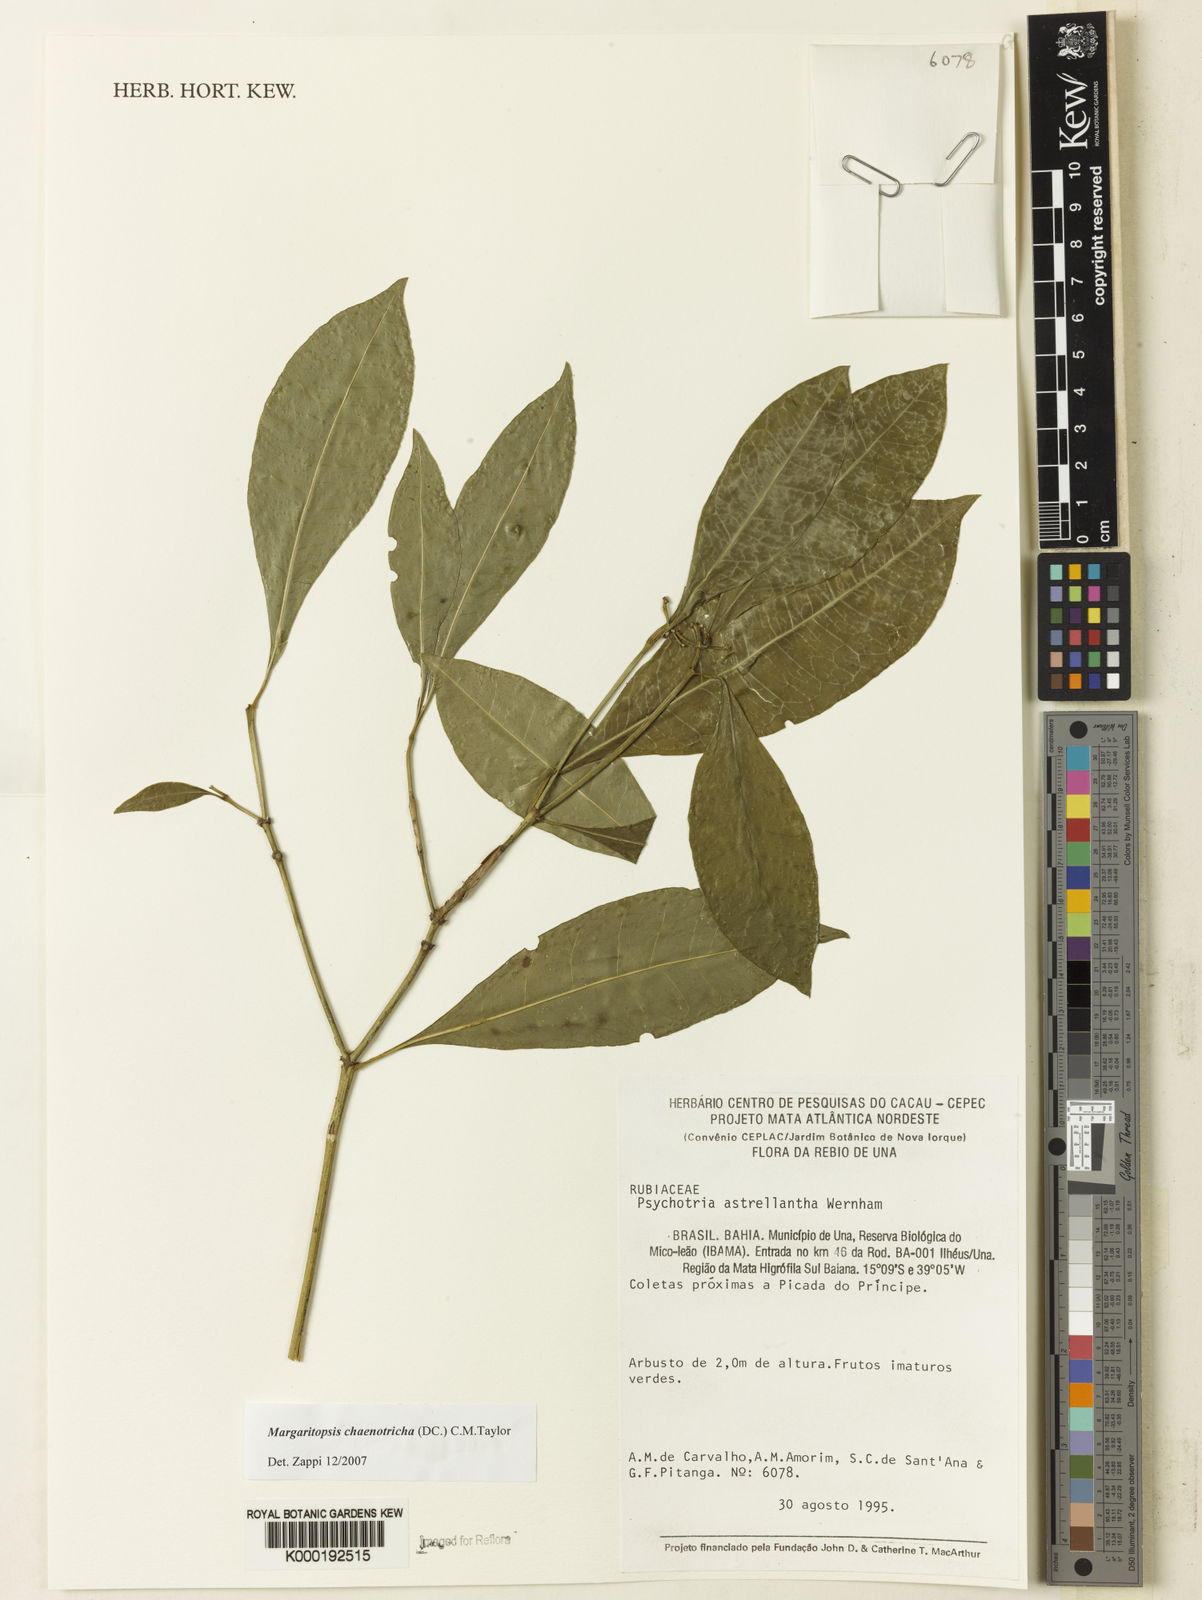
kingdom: Plantae
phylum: Tracheophyta
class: Magnoliopsida
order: Gentianales
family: Rubiaceae
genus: Eumachia
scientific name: Eumachia chaenotricha
